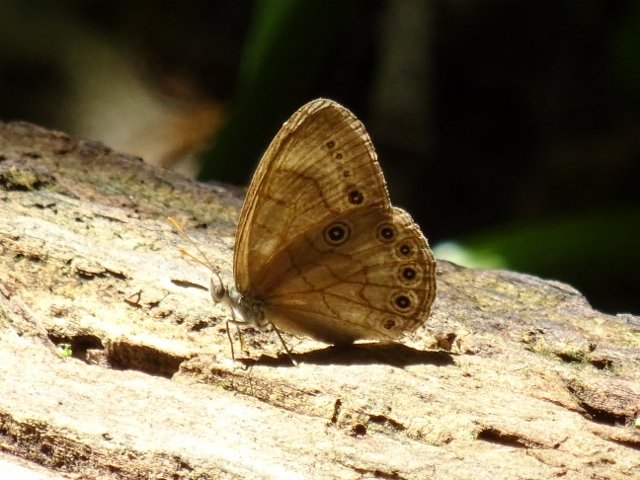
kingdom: Animalia
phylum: Arthropoda
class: Insecta
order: Lepidoptera
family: Nymphalidae
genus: Lethe
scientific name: Lethe eurydice
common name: Appalachian Eyed Brown
